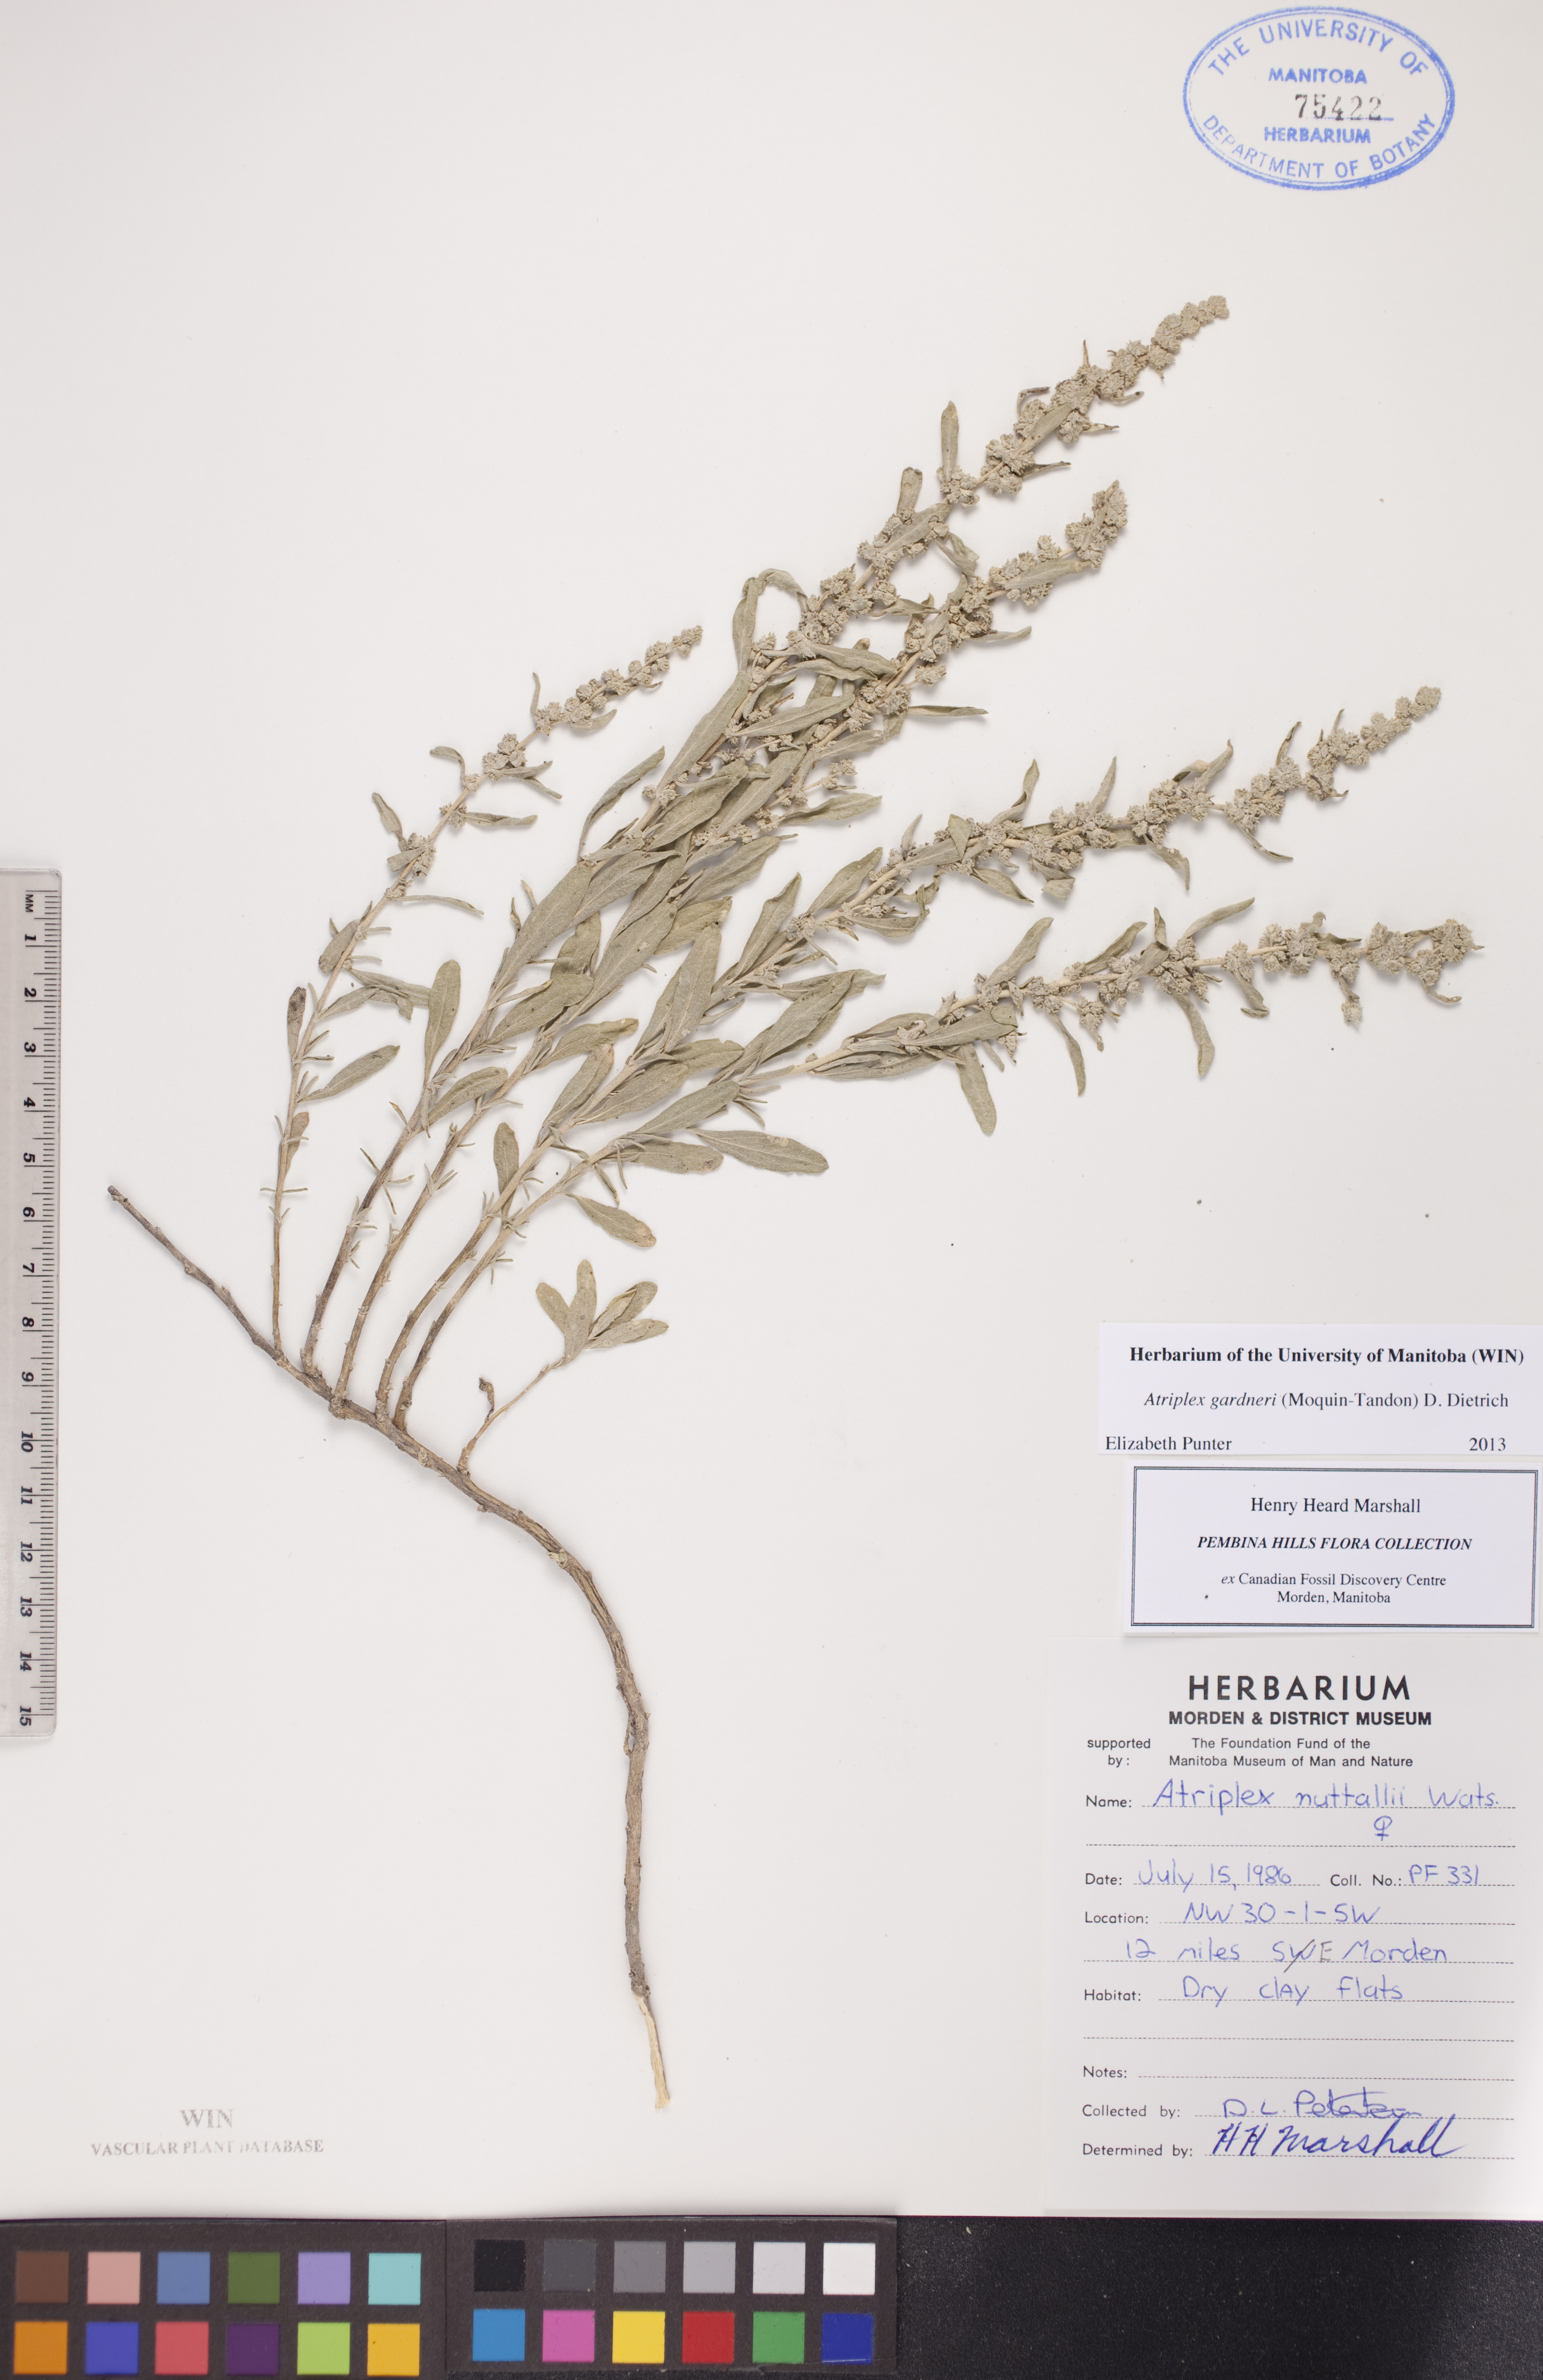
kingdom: Plantae
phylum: Tracheophyta
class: Magnoliopsida
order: Caryophyllales
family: Amaranthaceae
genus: Atriplex
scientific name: Atriplex gardneri
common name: Gardner's orache
